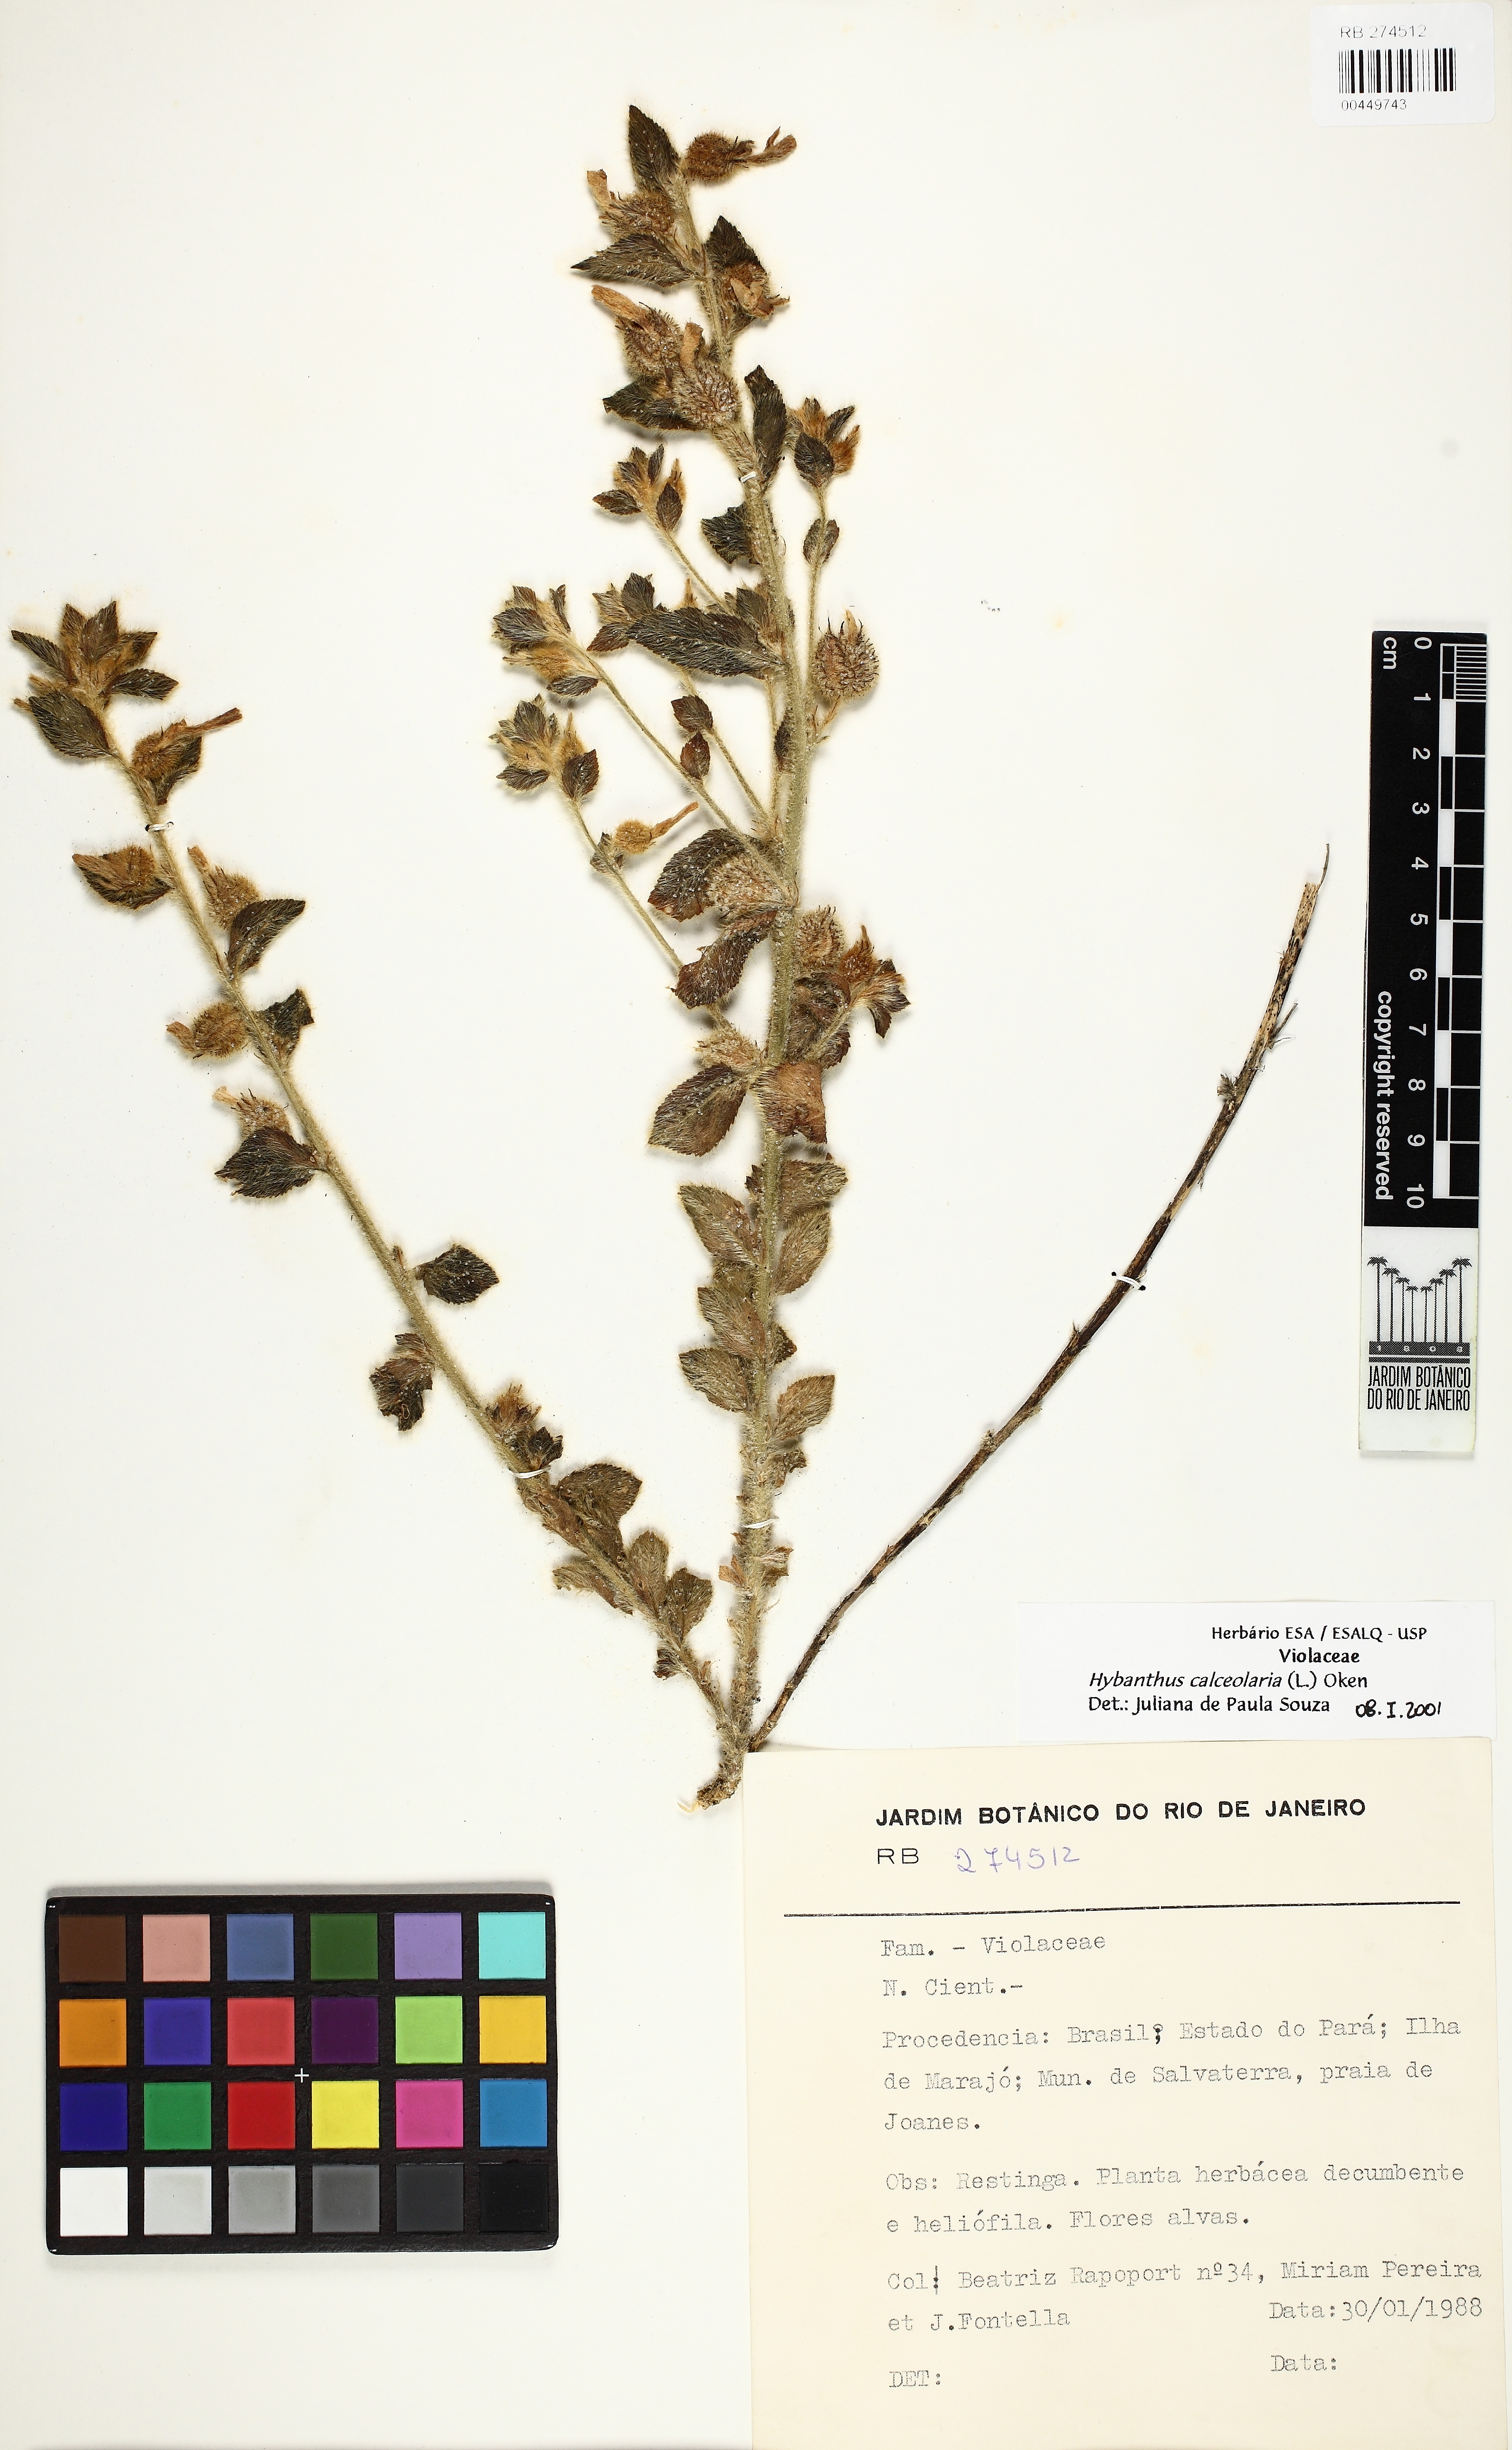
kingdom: Plantae
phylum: Tracheophyta
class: Magnoliopsida
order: Malpighiales
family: Violaceae
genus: Pombalia
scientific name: Pombalia calceolaria
